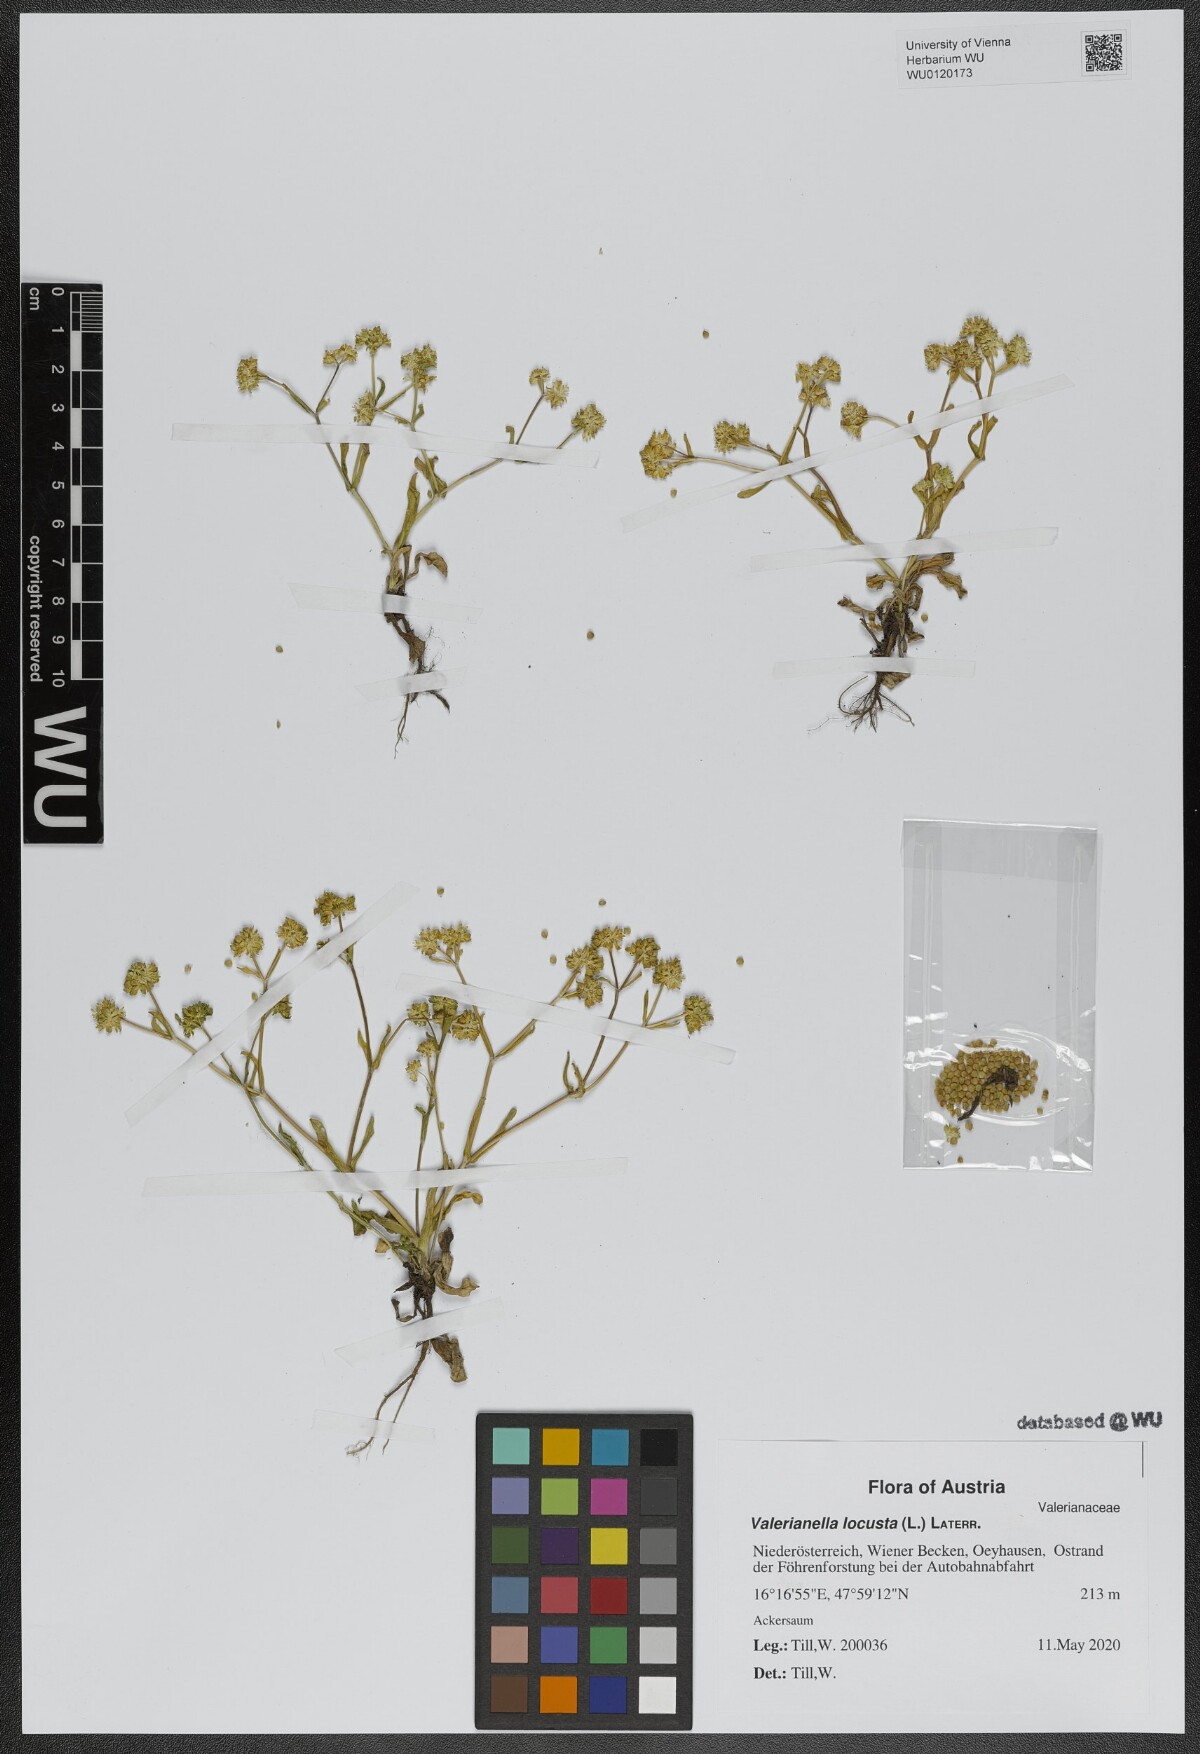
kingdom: Plantae
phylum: Tracheophyta
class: Magnoliopsida
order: Dipsacales
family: Caprifoliaceae
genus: Valerianella
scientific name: Valerianella locusta
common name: Common cornsalad
